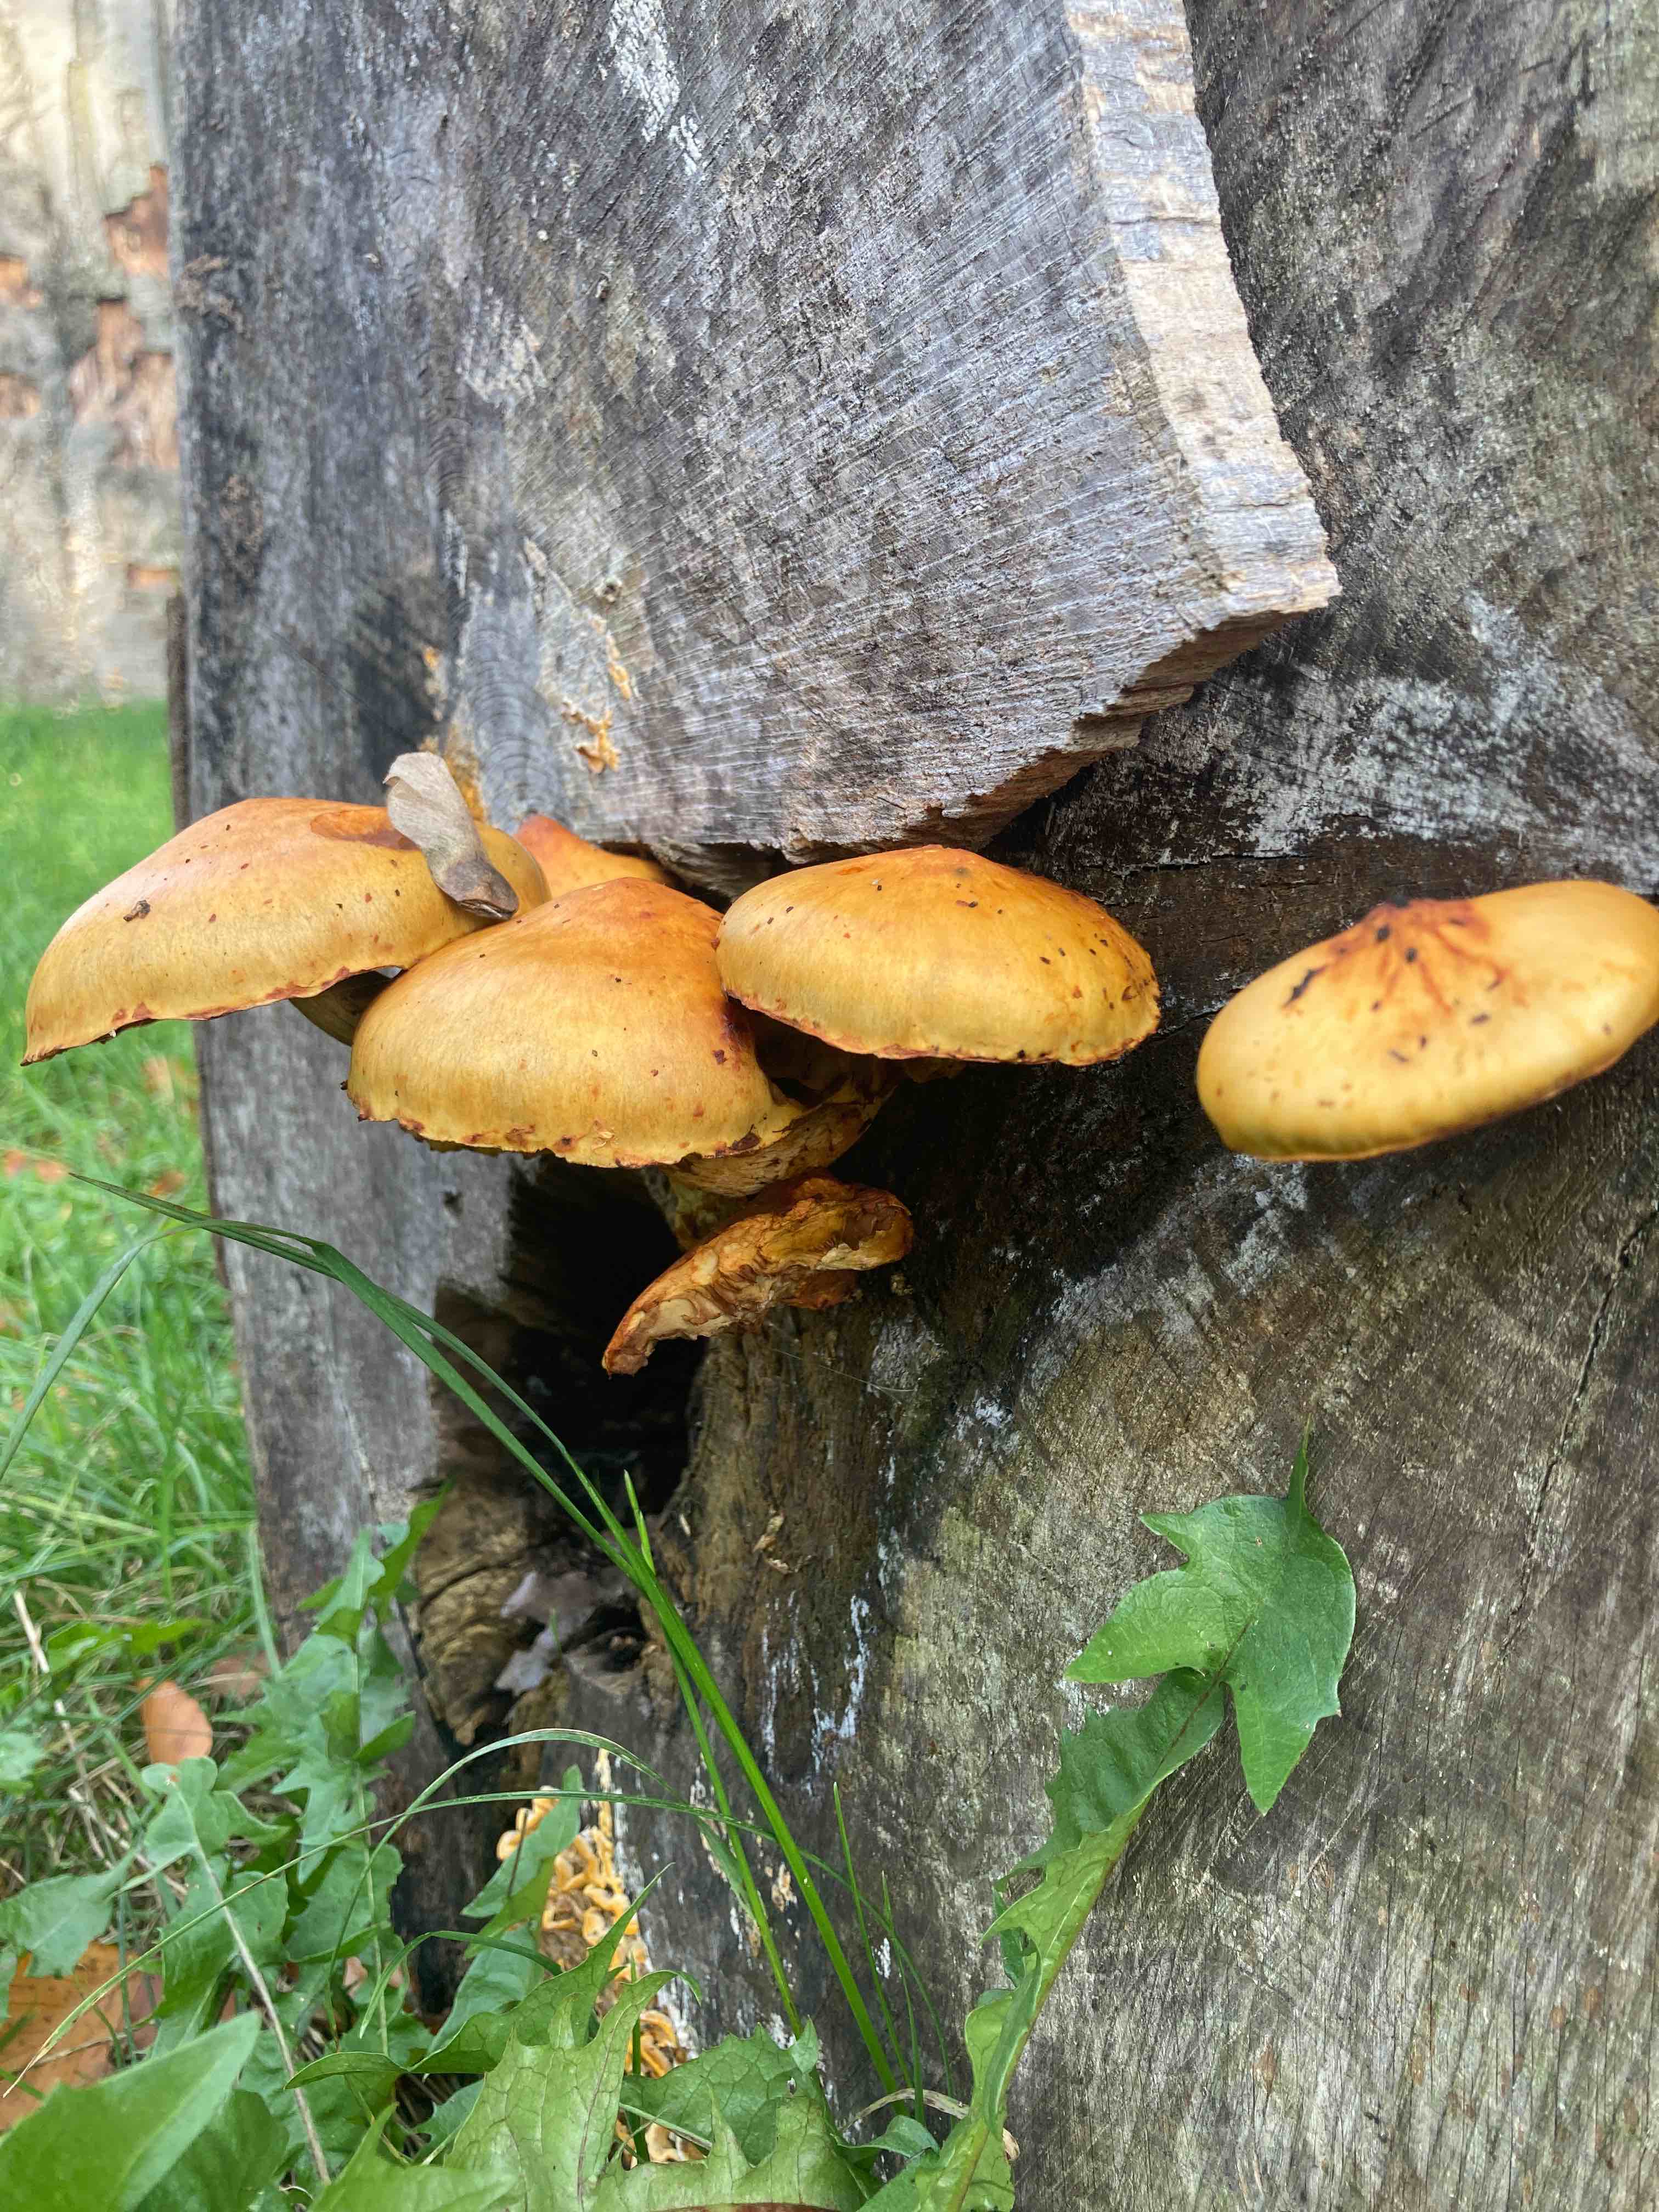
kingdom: Fungi
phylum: Basidiomycota
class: Agaricomycetes
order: Agaricales
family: Strophariaceae
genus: Pholiota
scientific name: Pholiota adiposa
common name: højtsiddende skælhat
